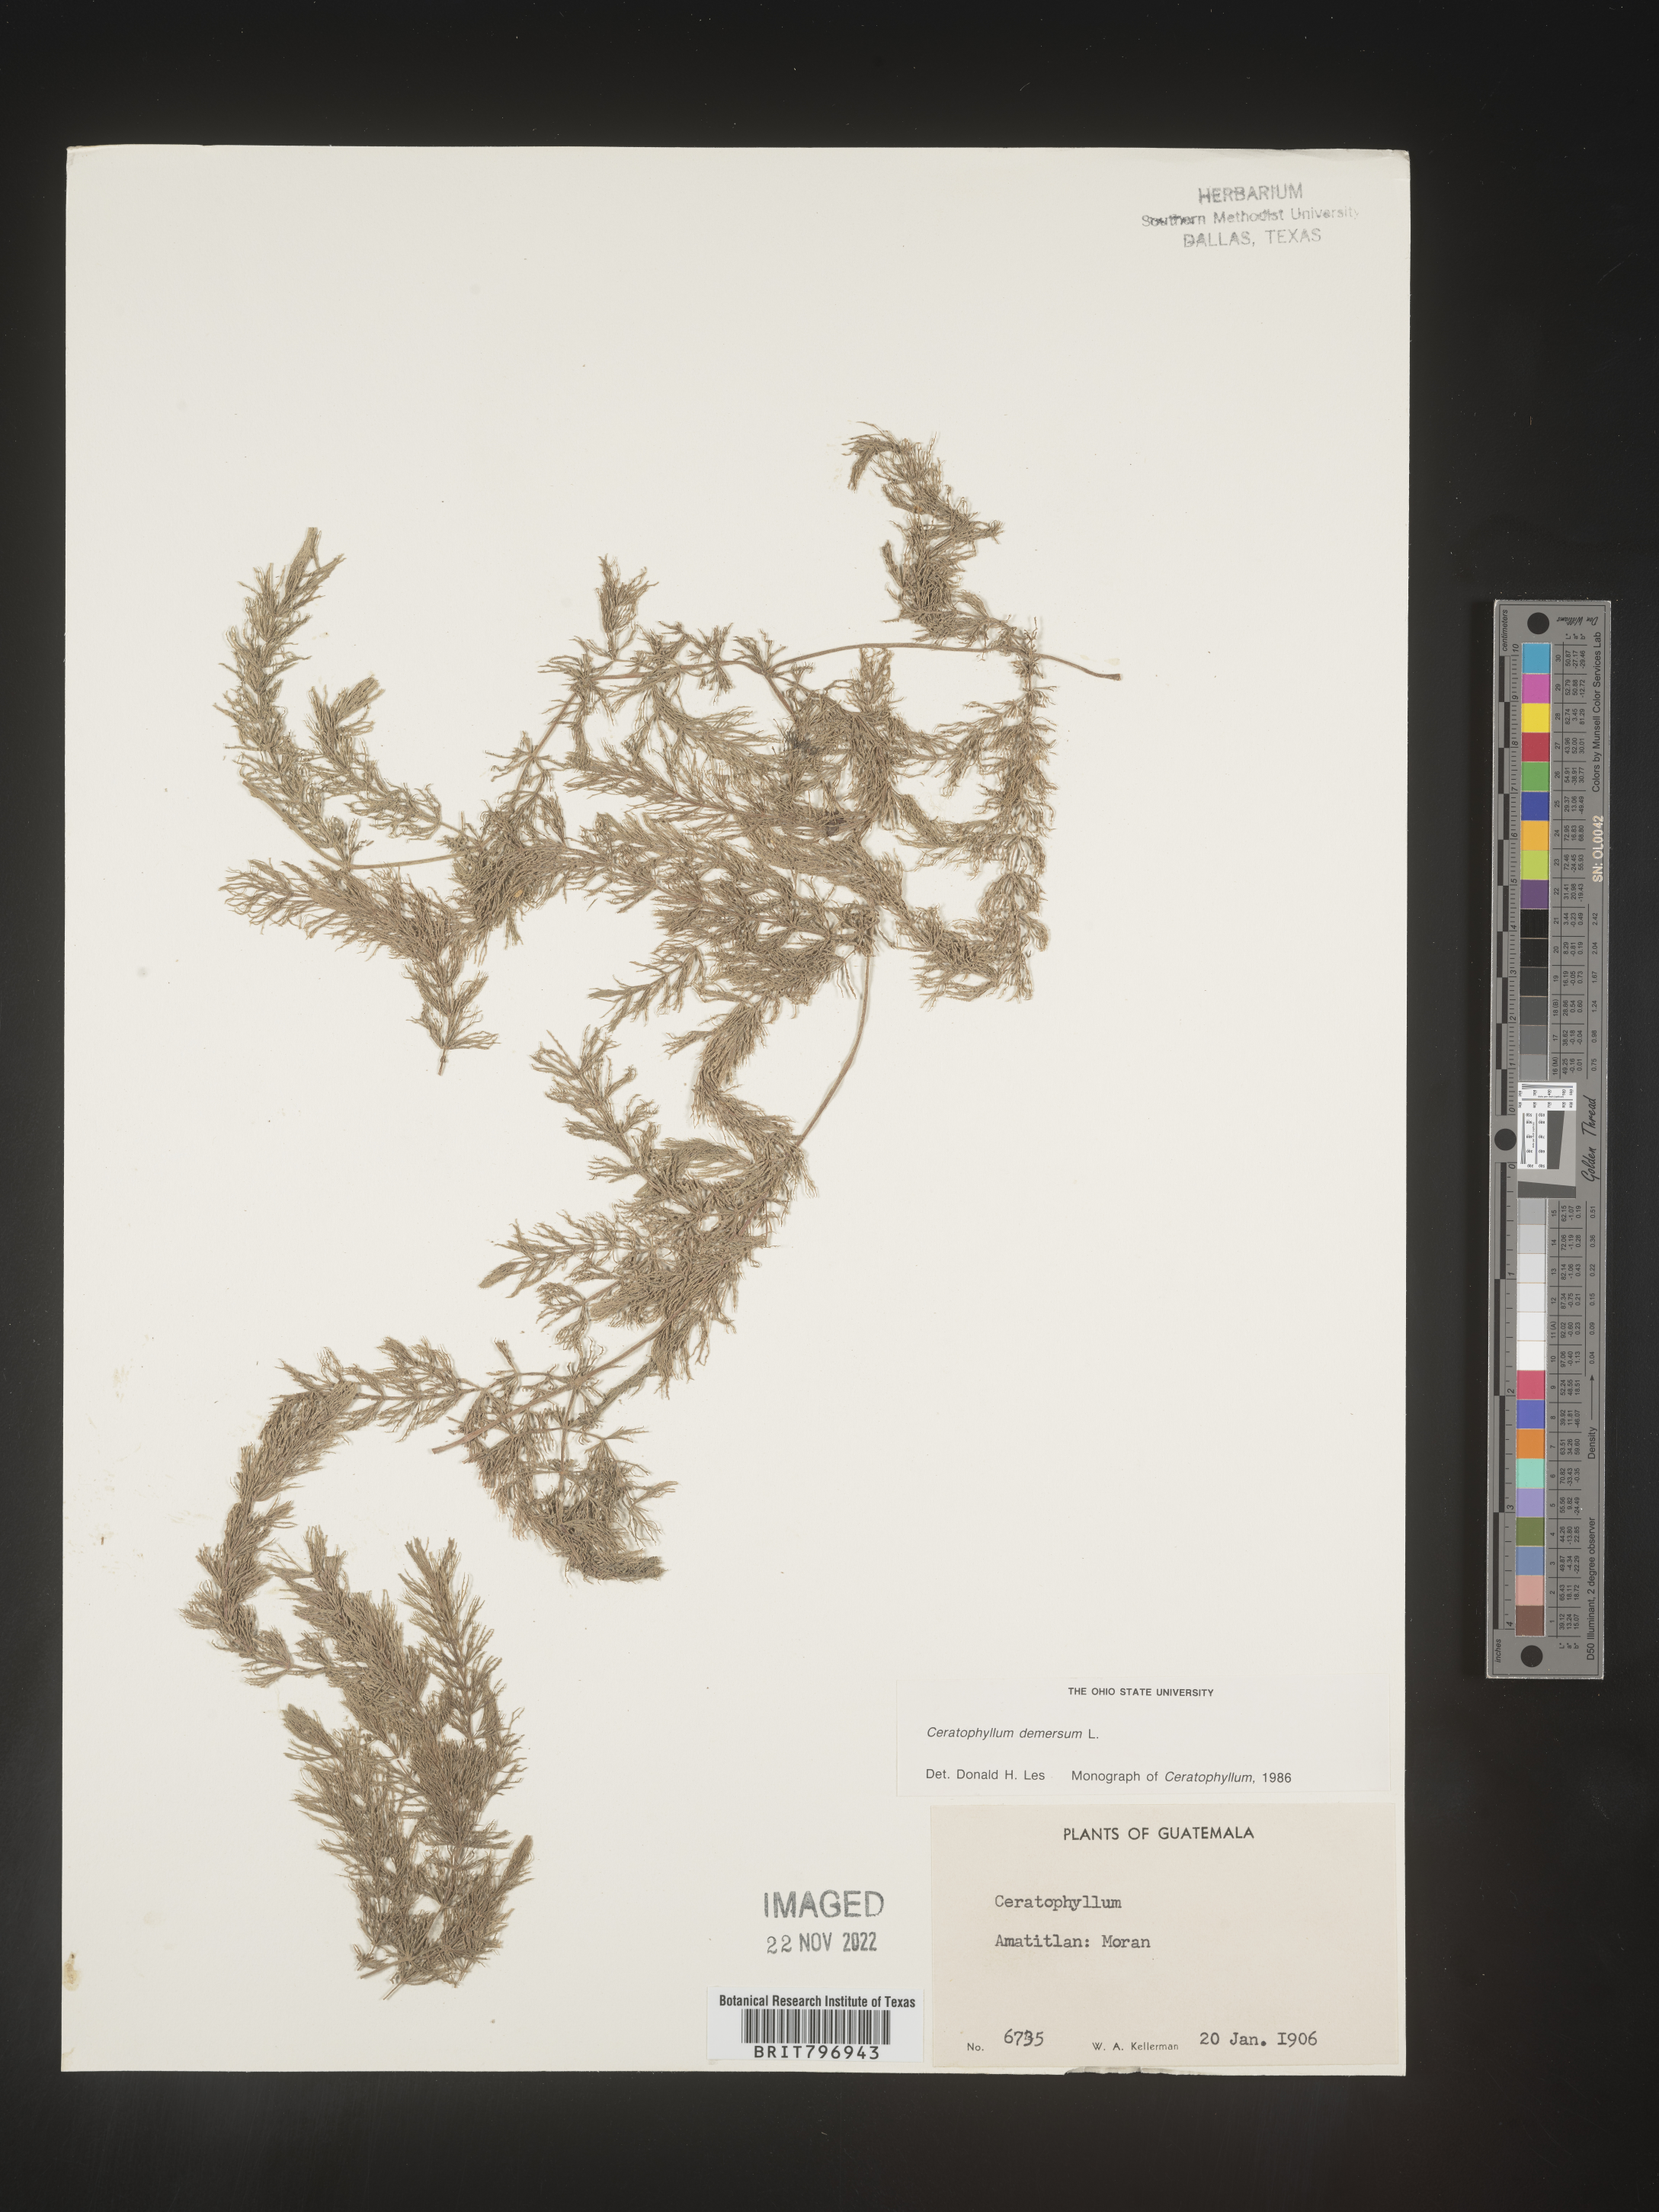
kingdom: Plantae
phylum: Tracheophyta
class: Magnoliopsida
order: Ceratophyllales
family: Ceratophyllaceae
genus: Ceratophyllum
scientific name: Ceratophyllum
